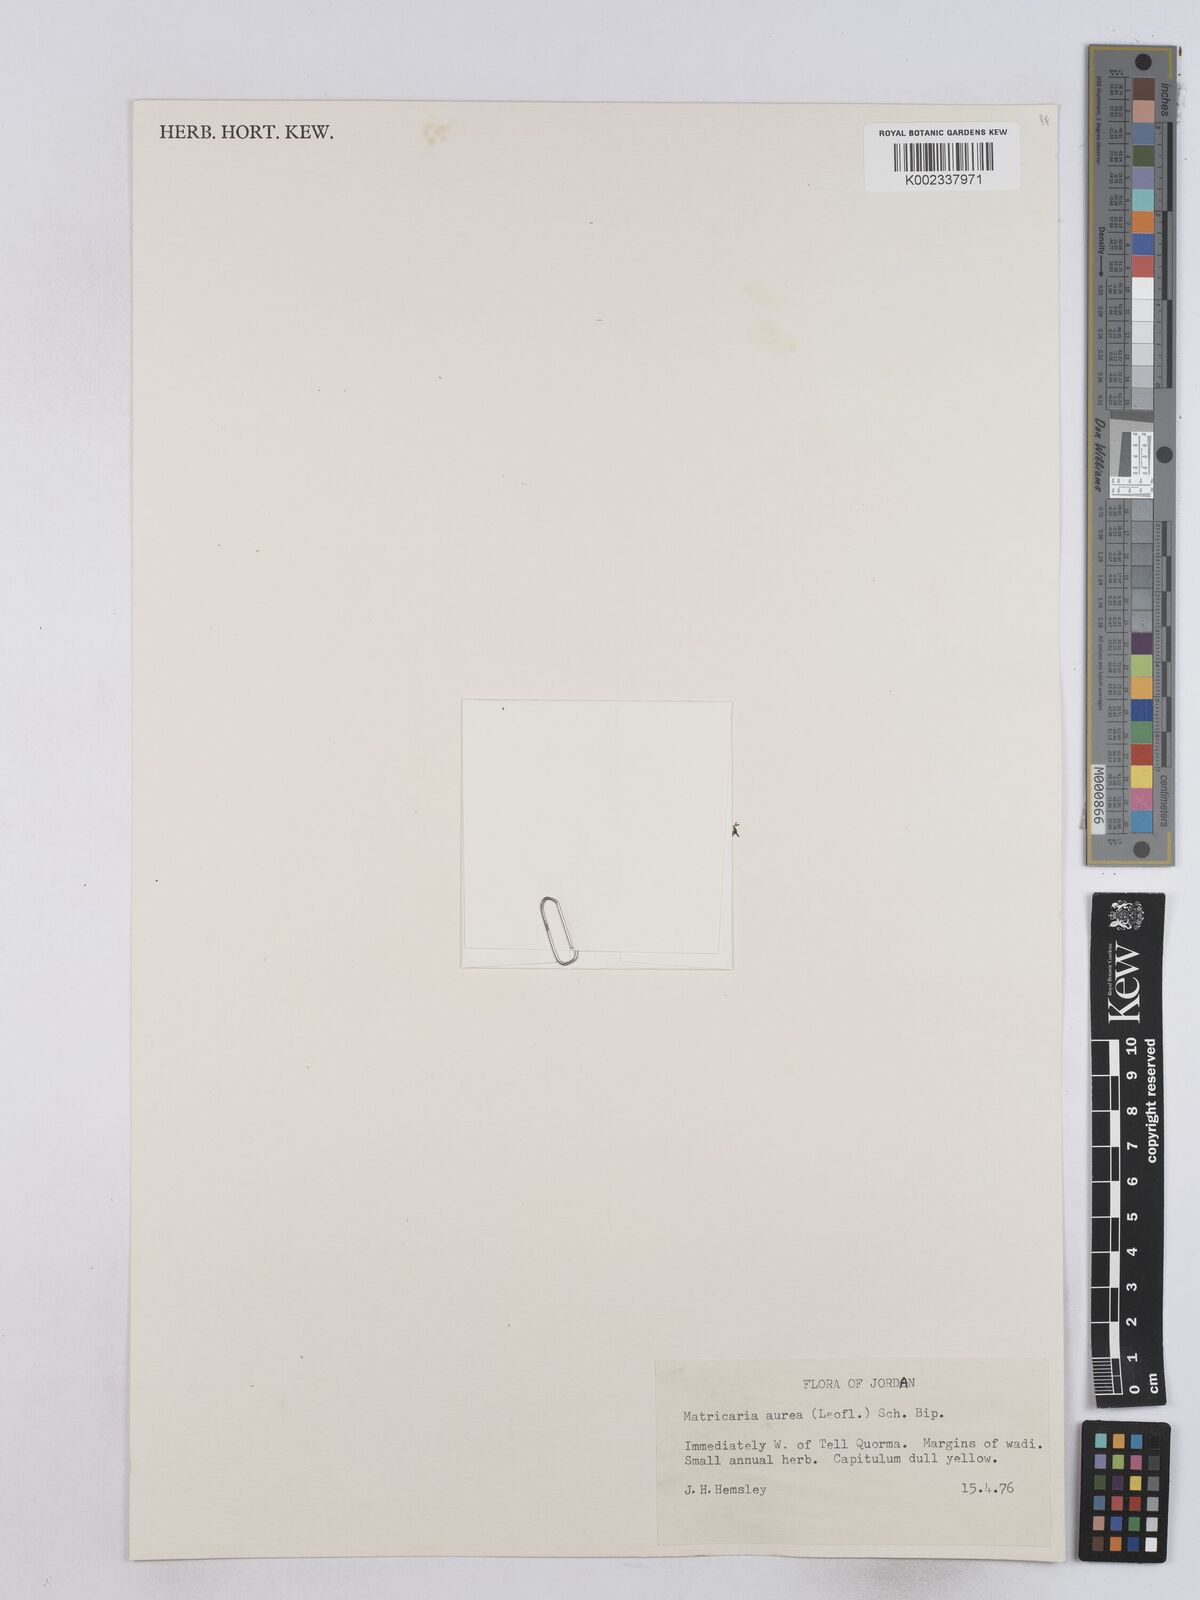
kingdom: Plantae
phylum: Tracheophyta
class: Magnoliopsida
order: Asterales
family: Asteraceae
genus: Matricaria
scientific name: Matricaria aurea
